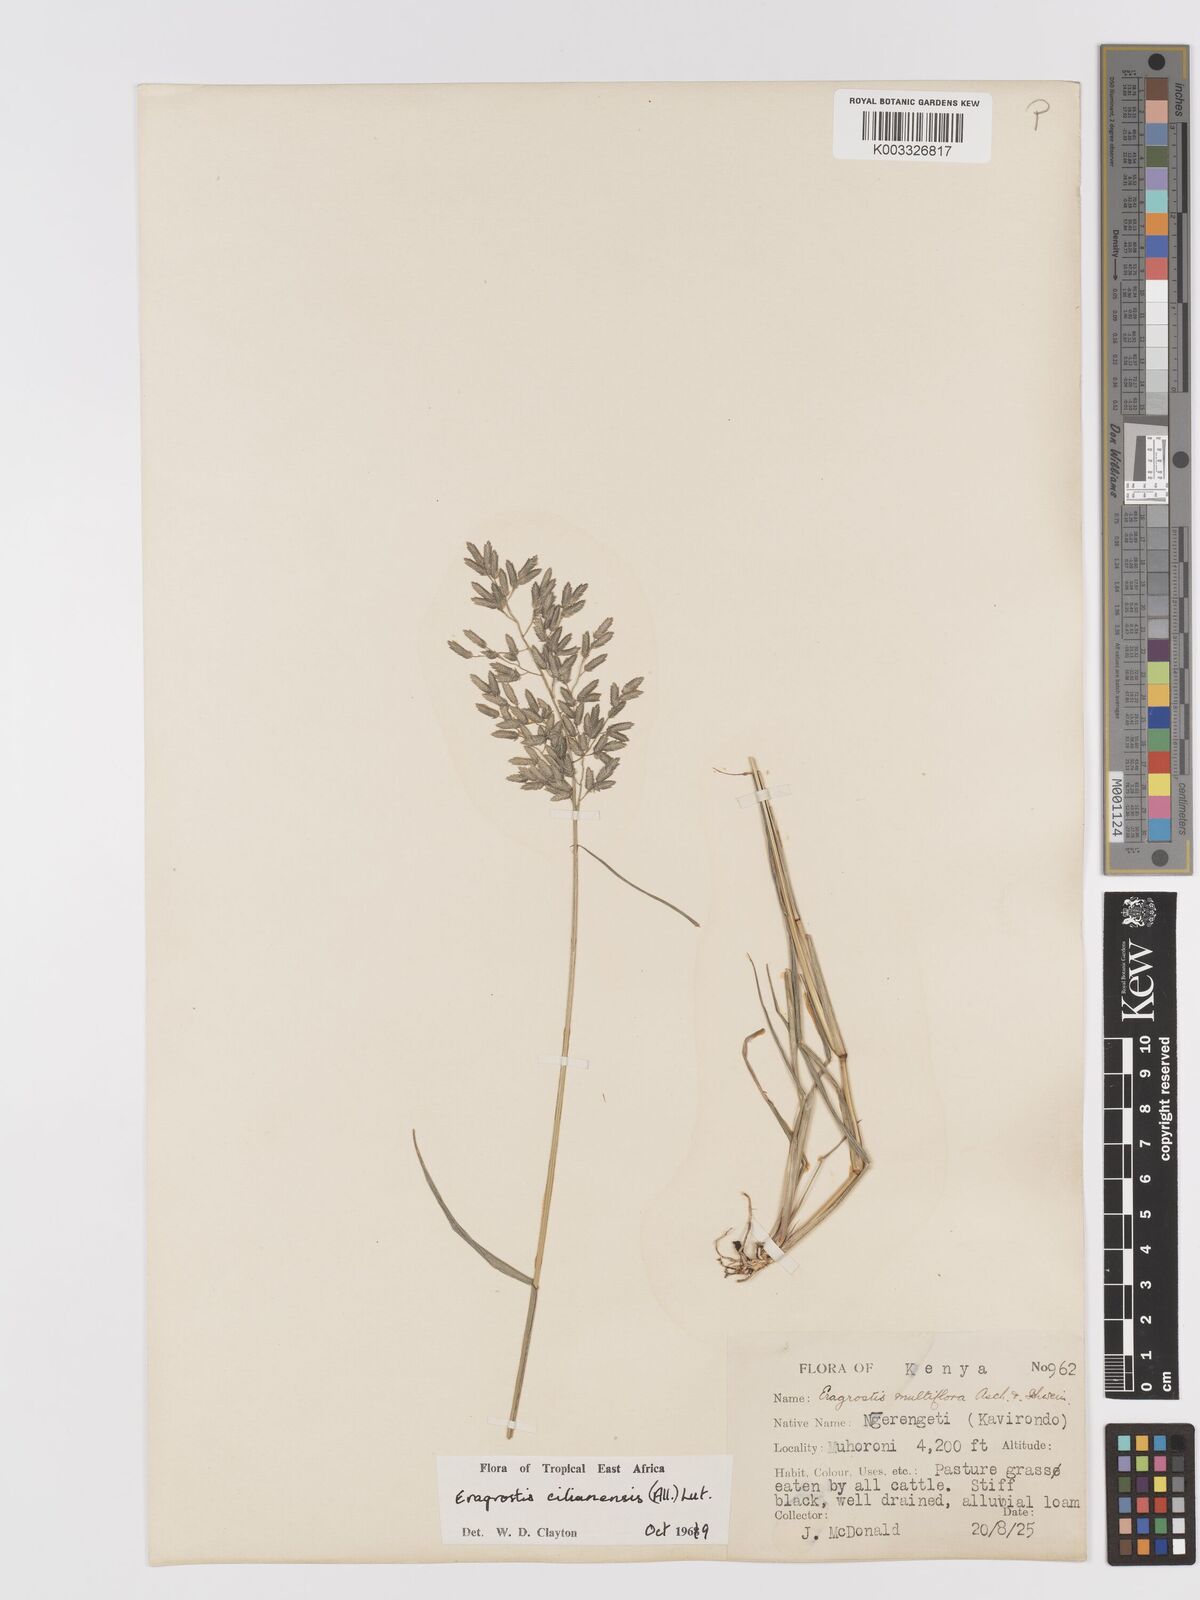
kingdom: Plantae
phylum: Tracheophyta
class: Liliopsida
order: Poales
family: Poaceae
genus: Eragrostis
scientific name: Eragrostis cilianensis
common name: Stinkgrass
